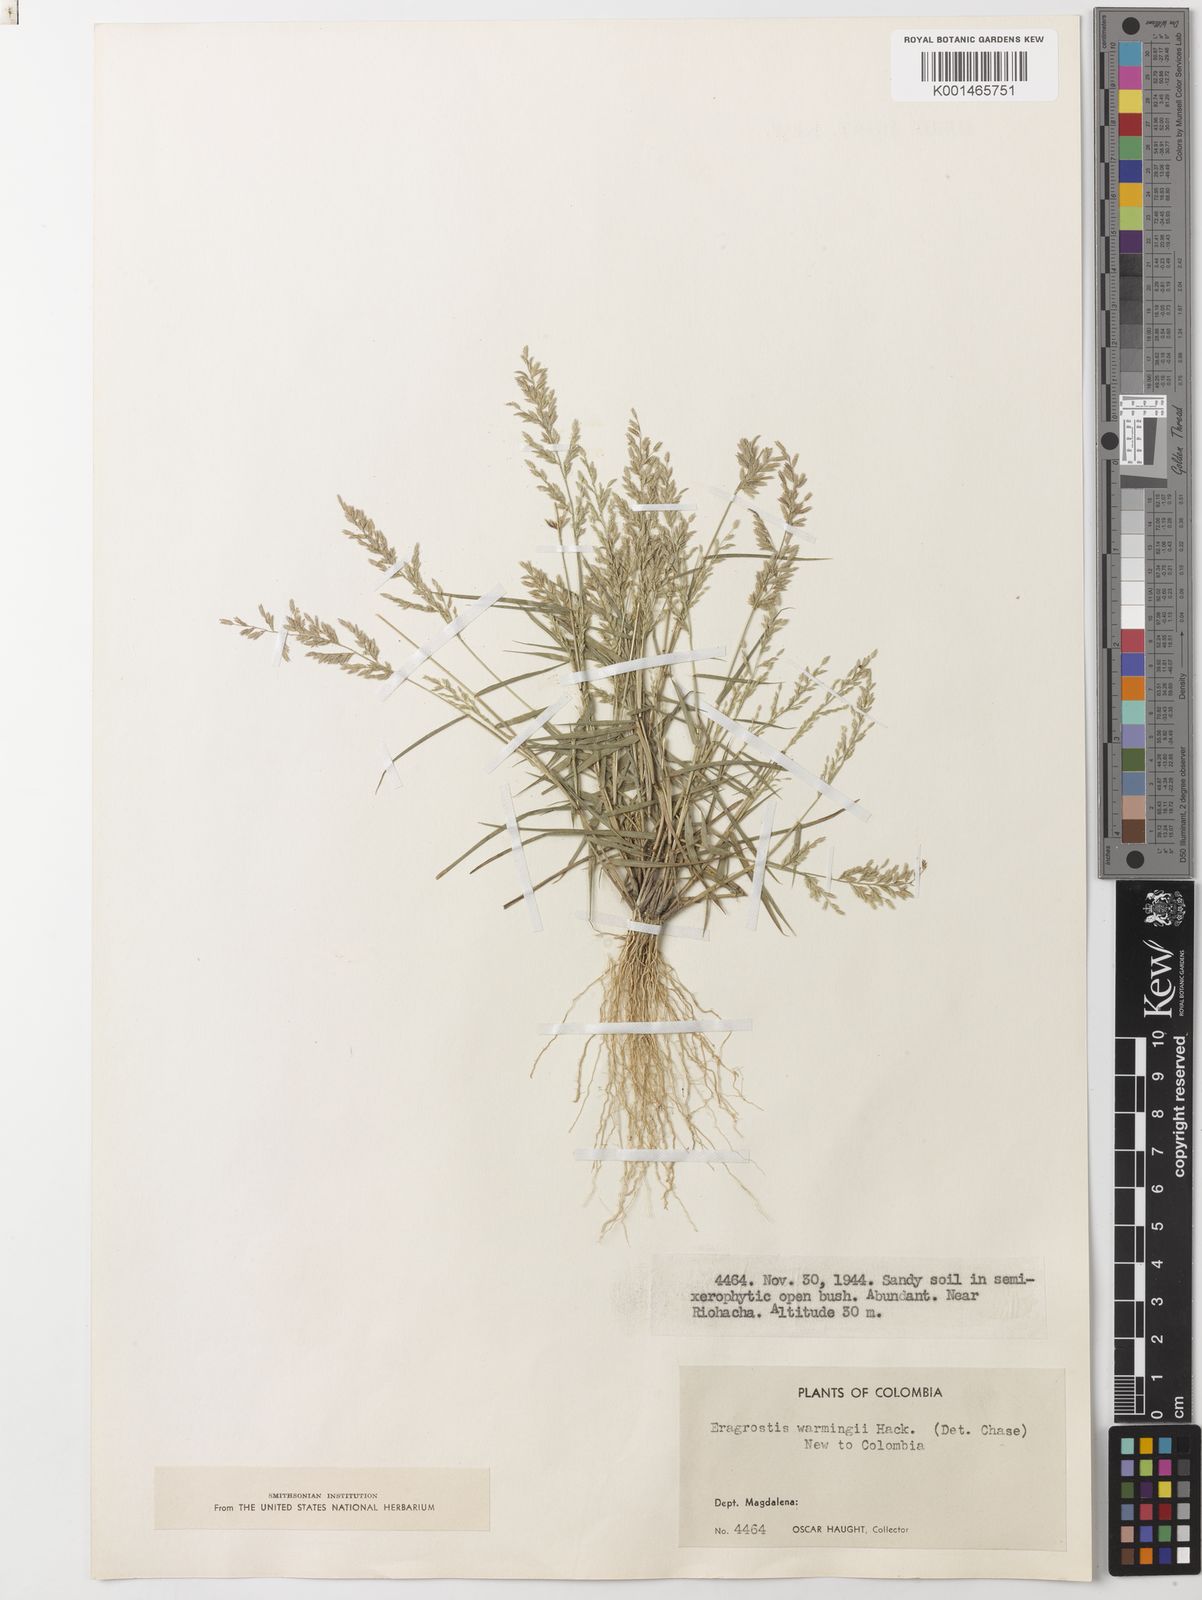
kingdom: Plantae
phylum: Tracheophyta
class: Liliopsida
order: Poales
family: Poaceae
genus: Eragrostis
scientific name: Eragrostis
